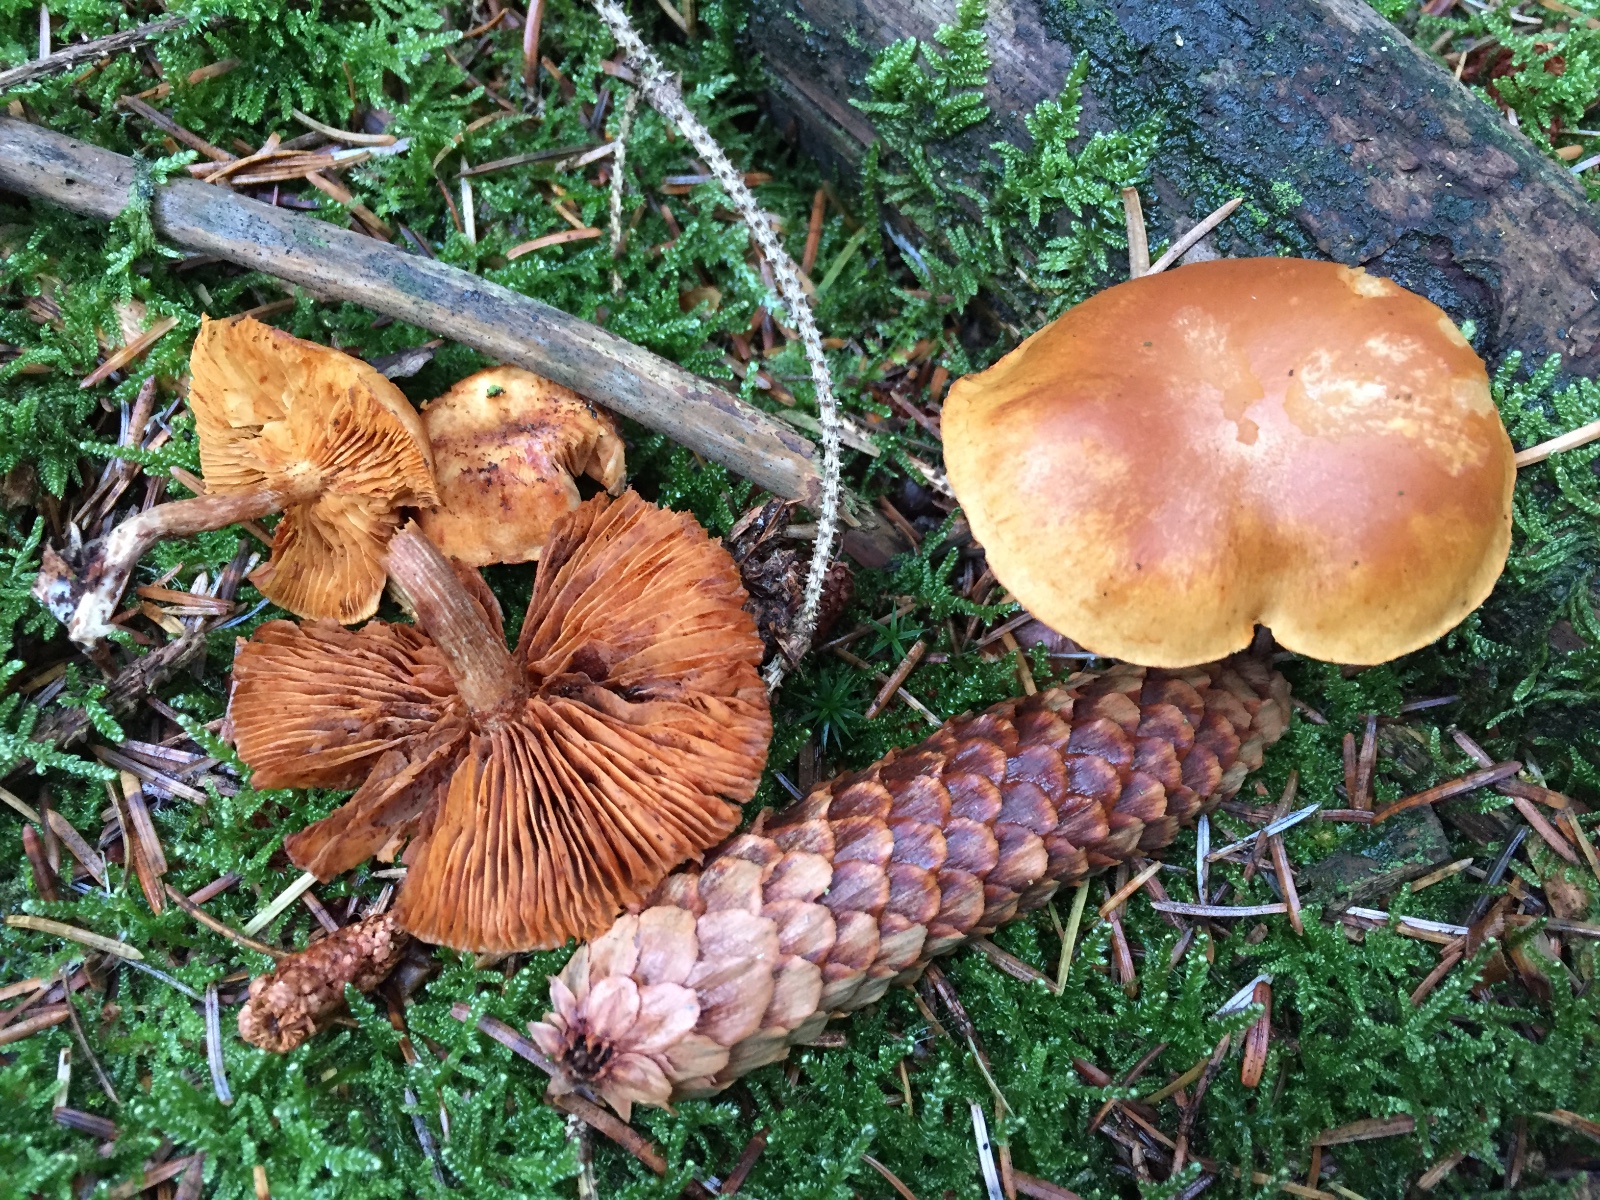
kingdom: Fungi
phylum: Basidiomycota
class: Agaricomycetes
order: Agaricales
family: Hymenogastraceae
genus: Gymnopilus
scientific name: Gymnopilus penetrans
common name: plettet flammehat
